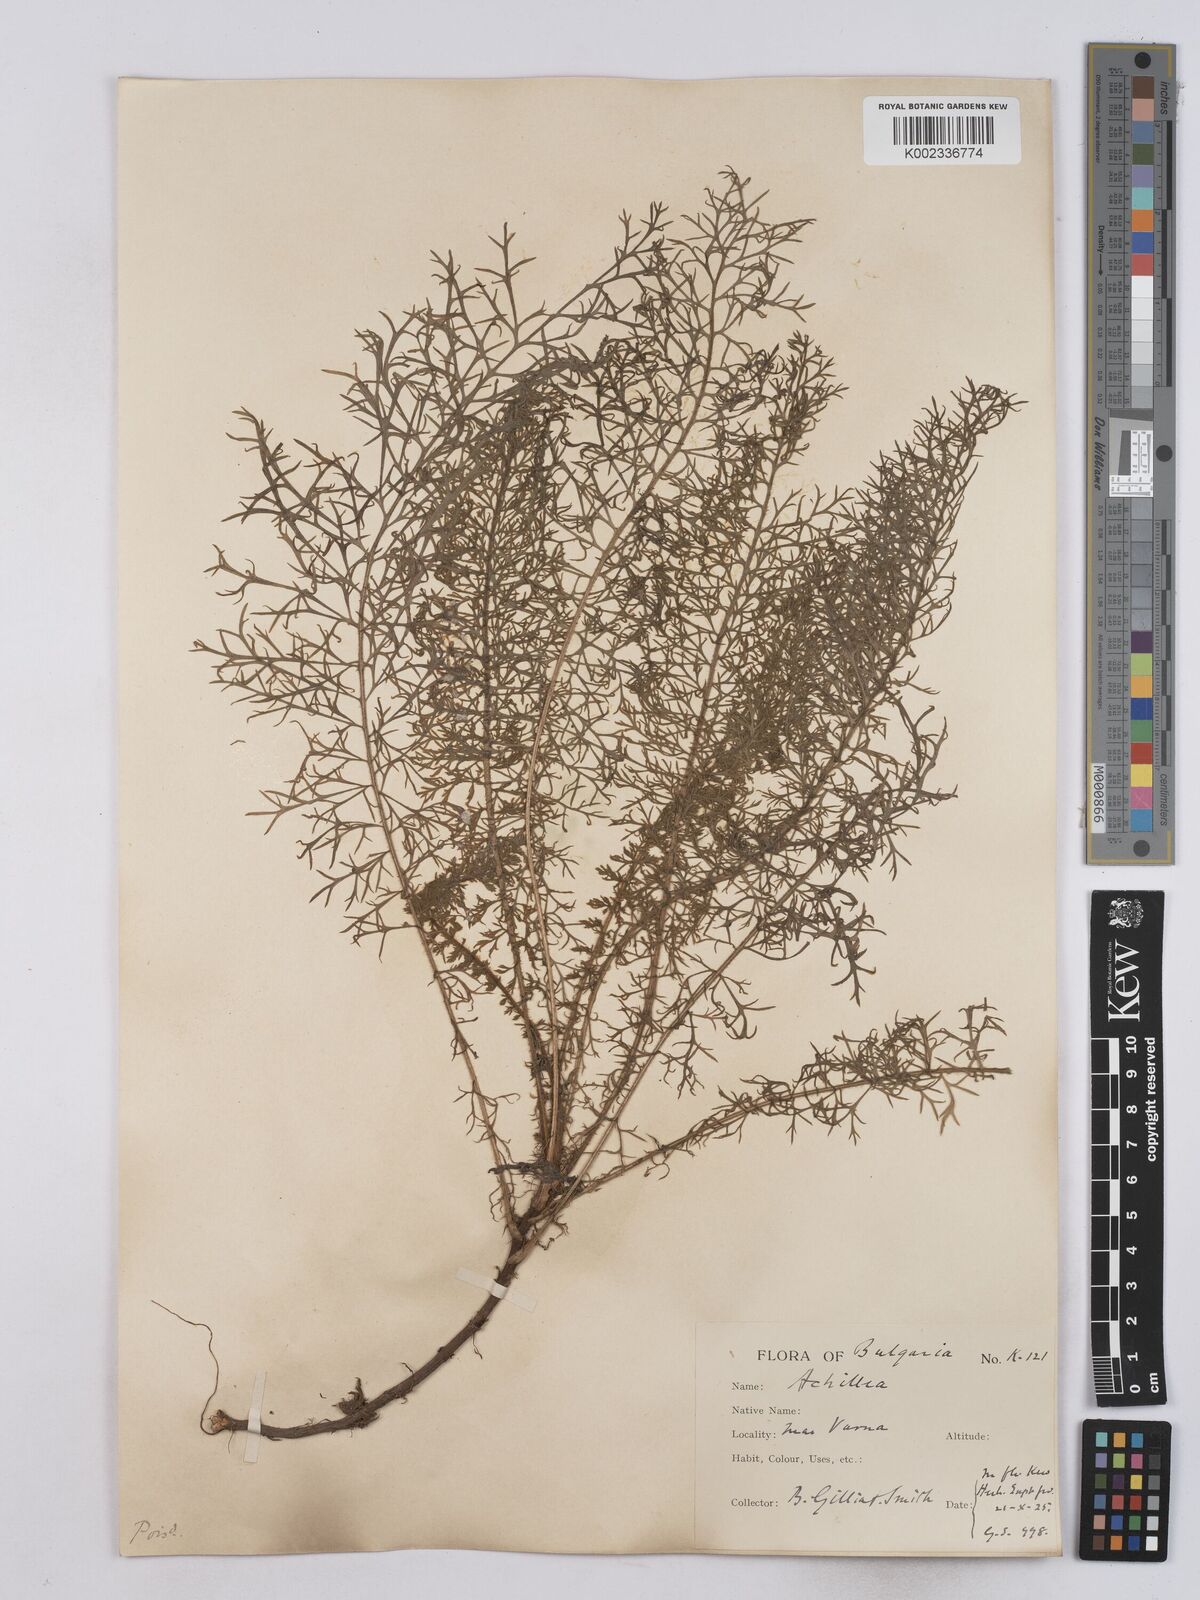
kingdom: Plantae
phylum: Tracheophyta
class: Magnoliopsida
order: Asterales
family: Asteraceae
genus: Achillea
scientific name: Achillea crithmifolia
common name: Yarrow
